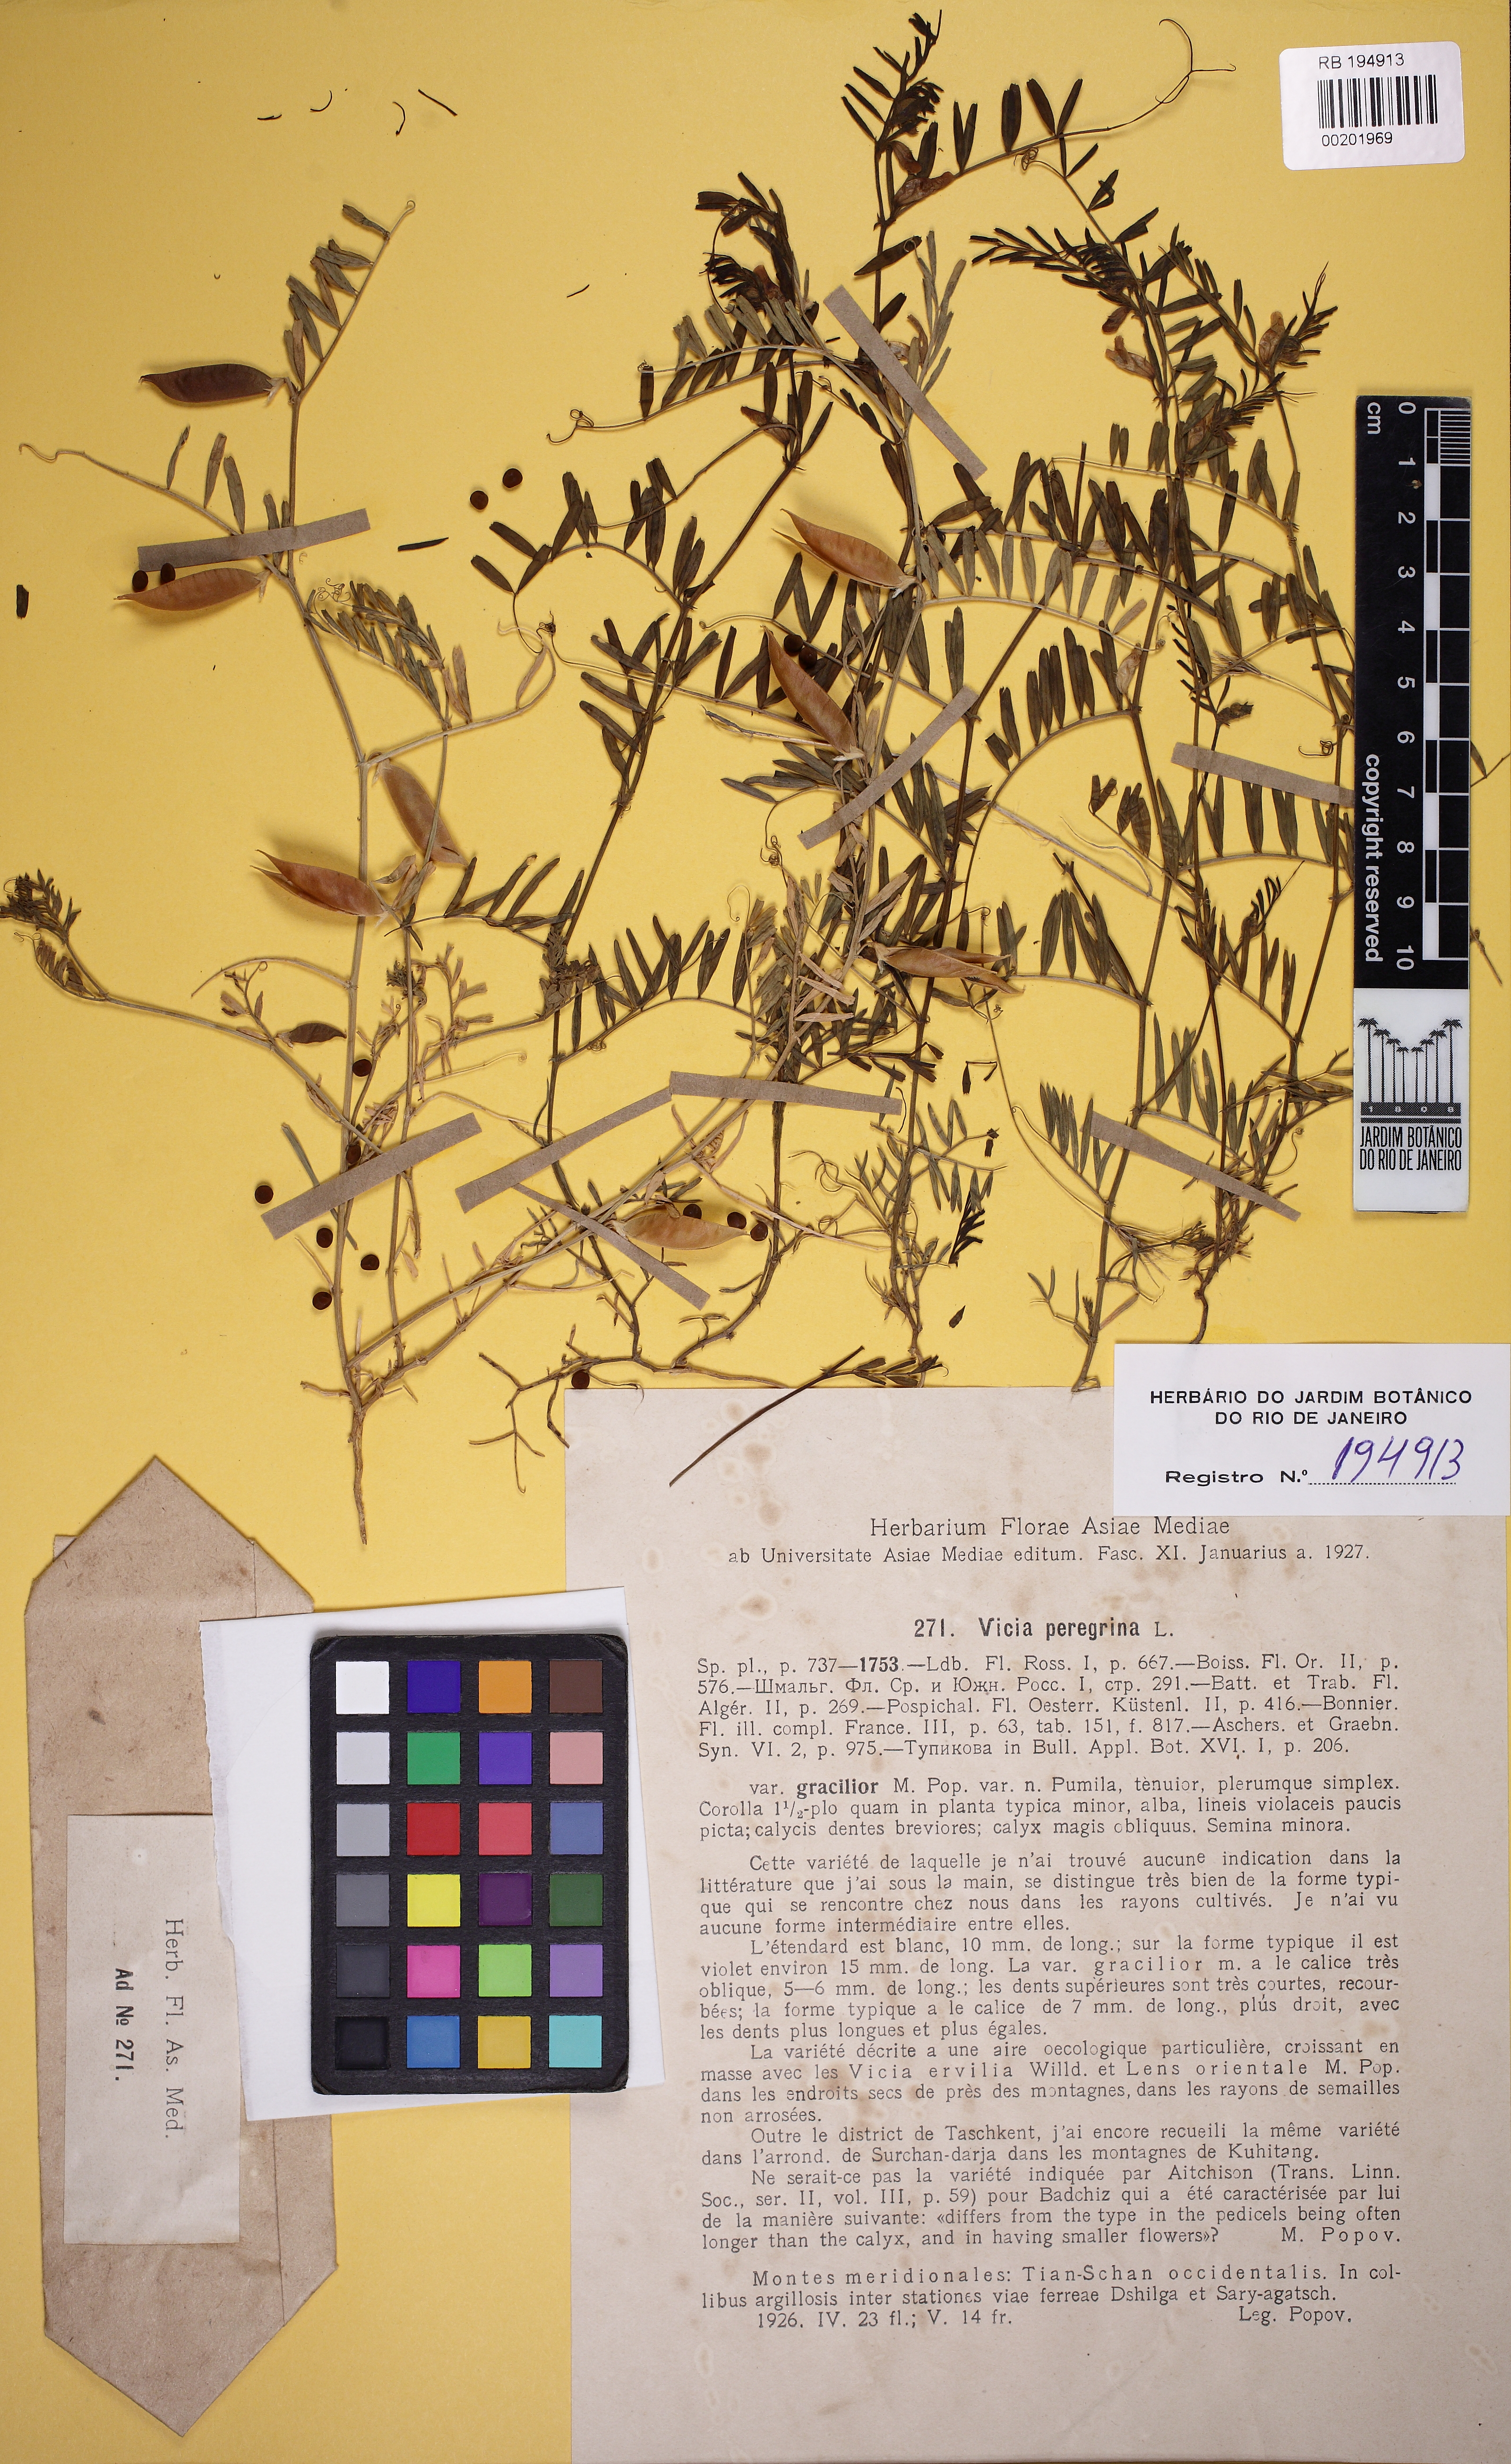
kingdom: Plantae
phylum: Tracheophyta
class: Magnoliopsida
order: Fabales
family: Fabaceae
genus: Vicia
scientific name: Vicia peregrina
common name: Broad-pod vetch
